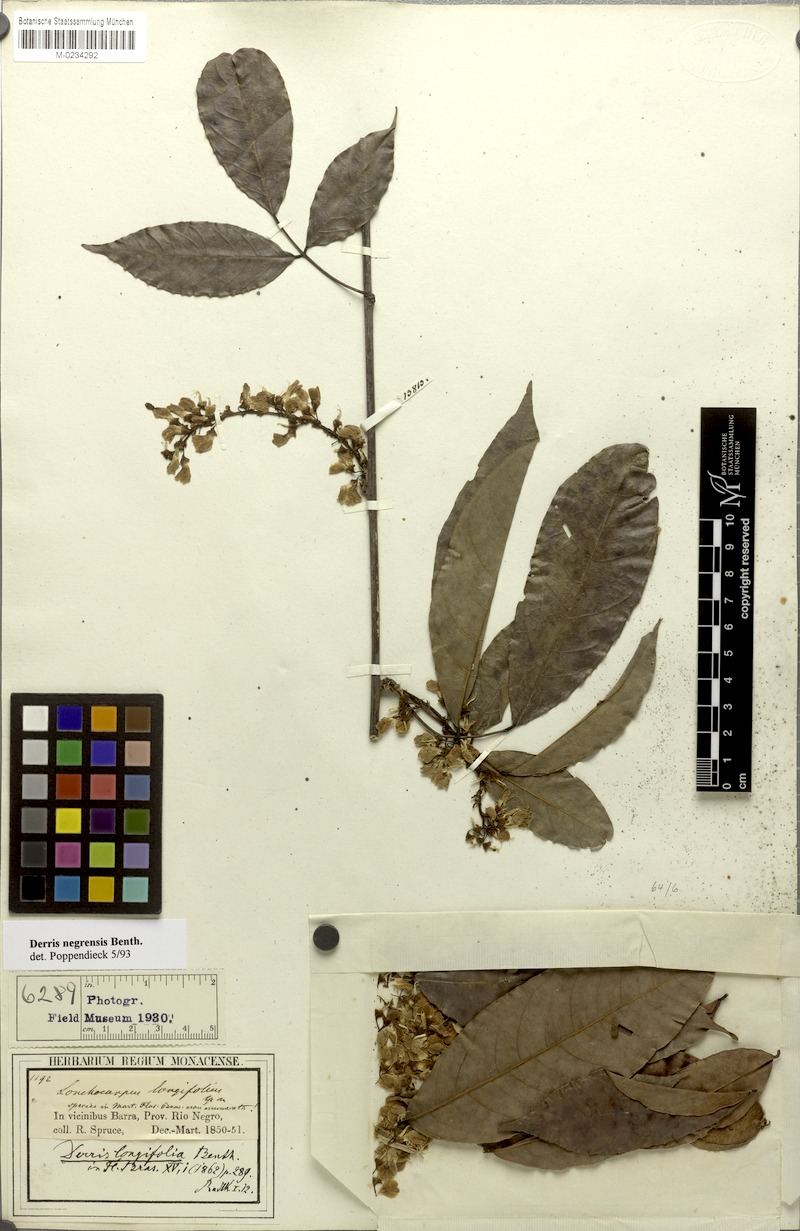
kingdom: Plantae
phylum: Tracheophyta
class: Magnoliopsida
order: Fabales
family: Fabaceae
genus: Deguelia
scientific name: Deguelia scandens
